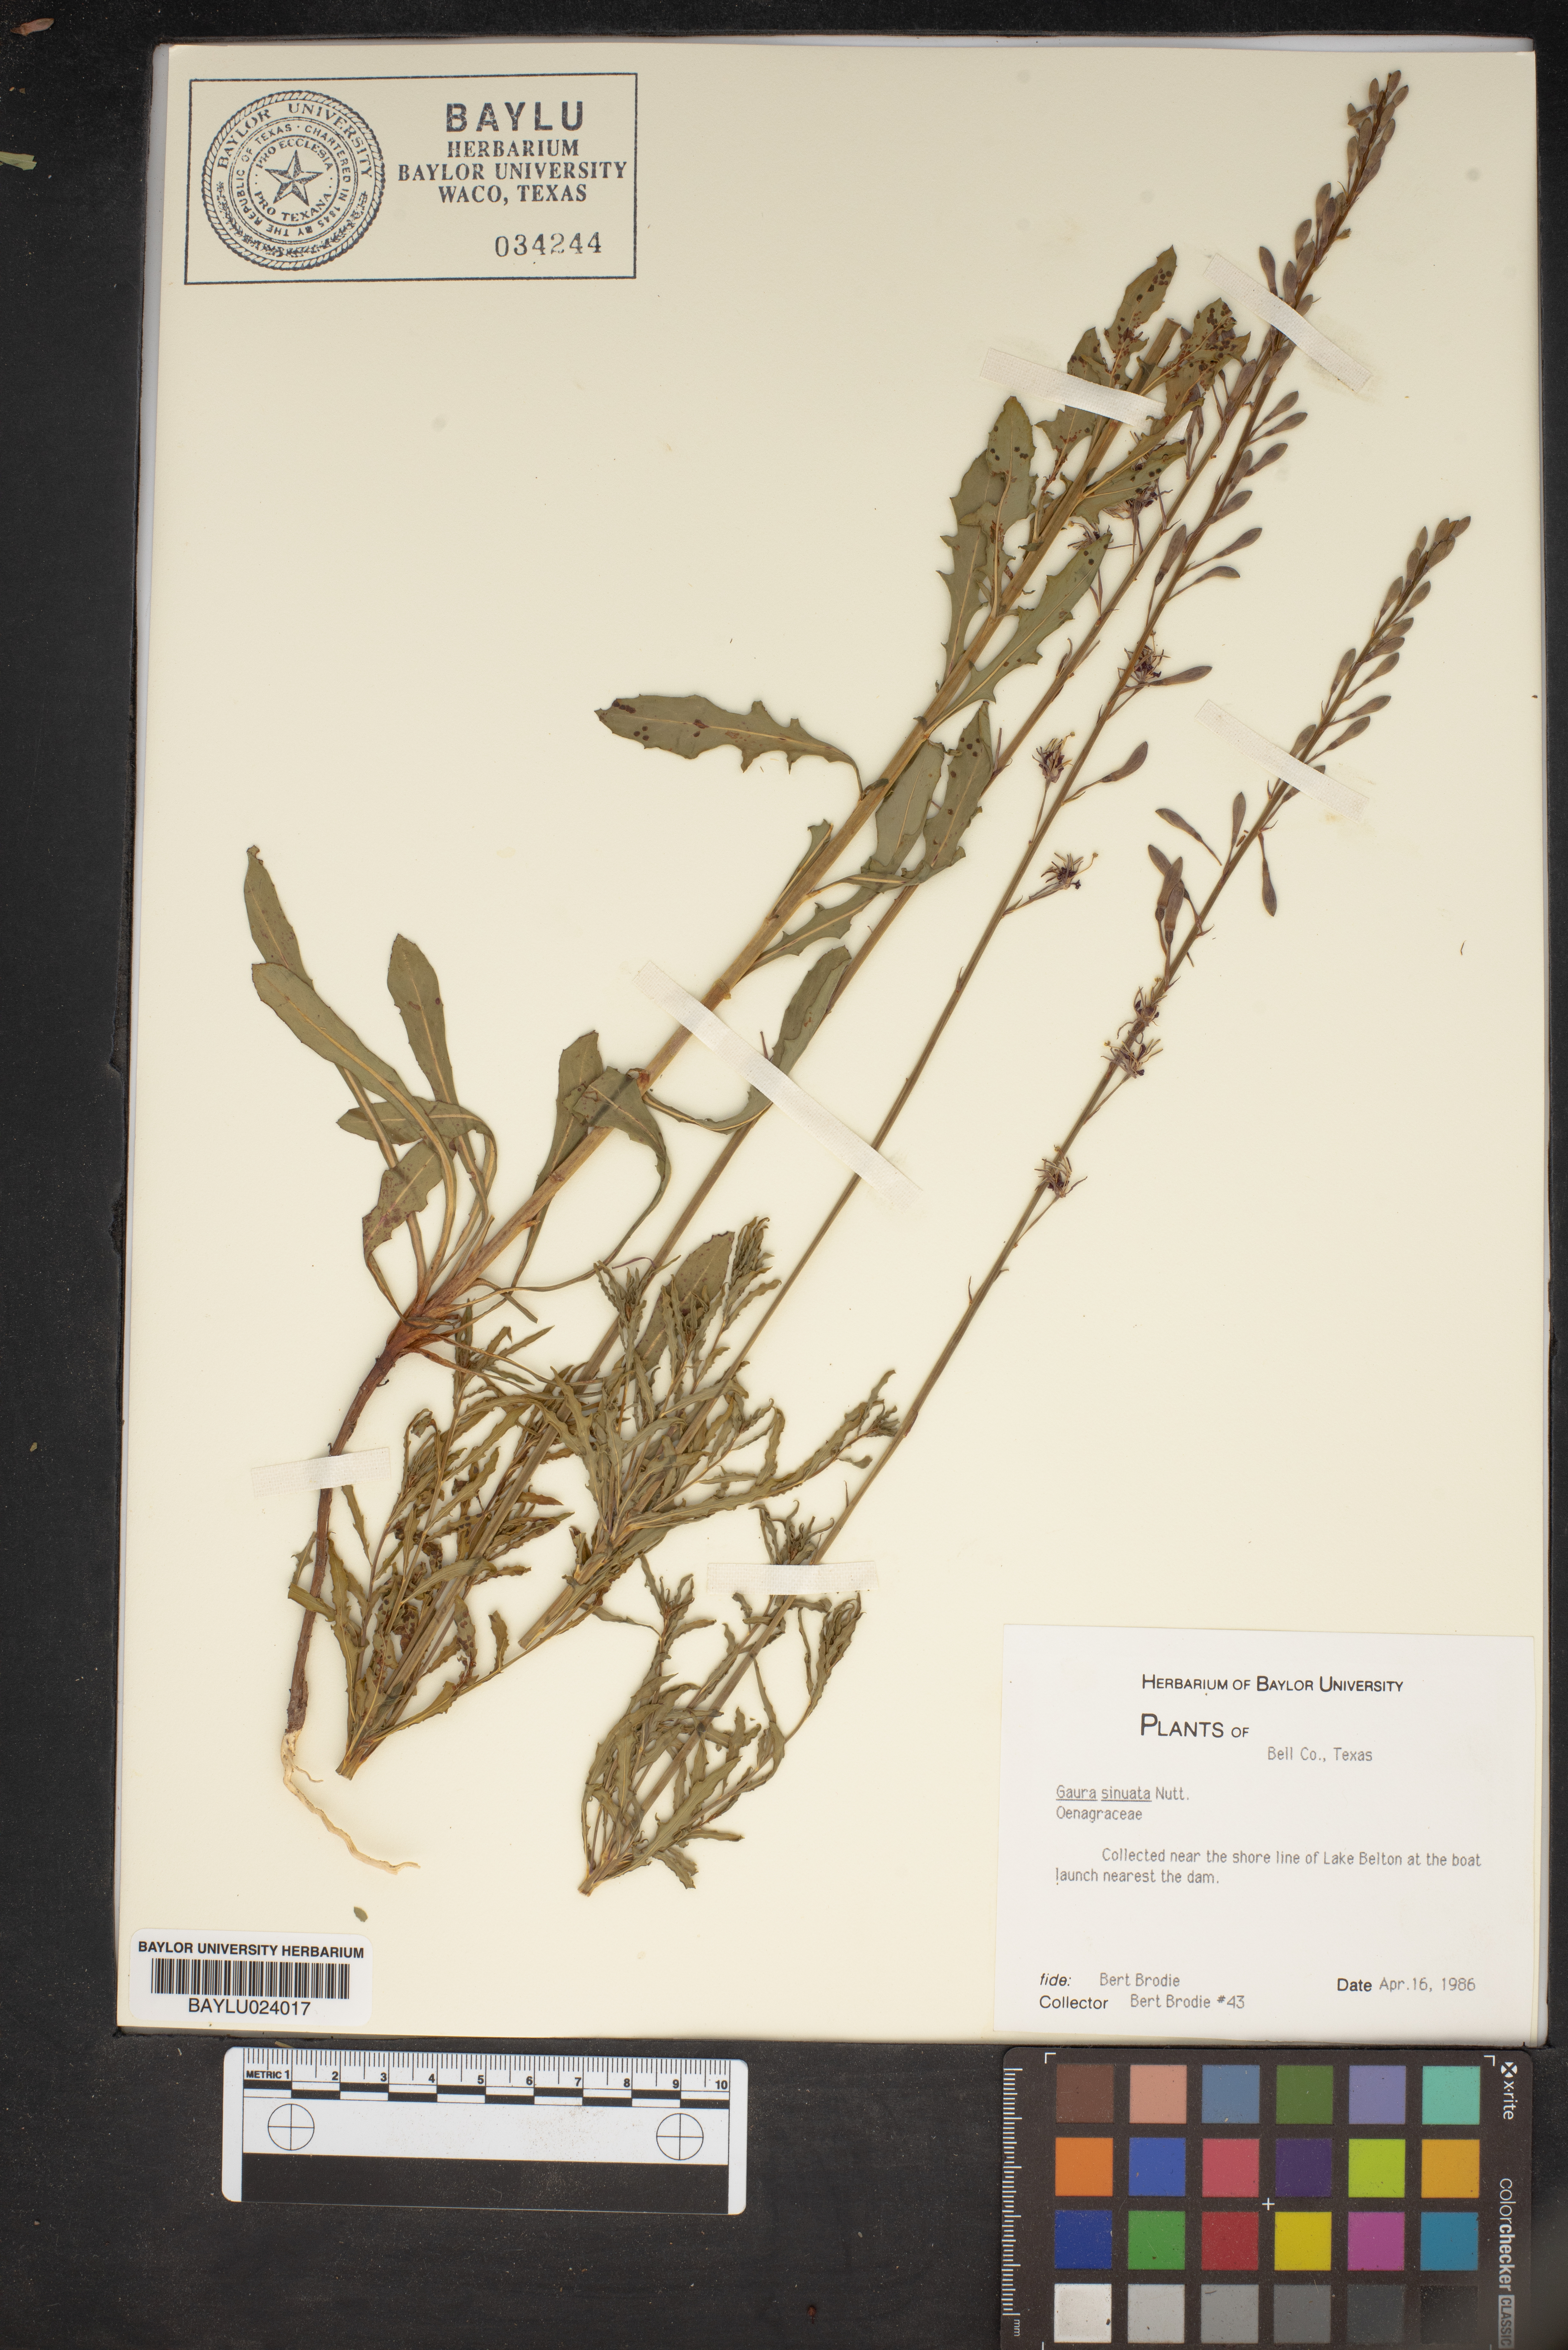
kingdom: Plantae
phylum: Tracheophyta
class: Magnoliopsida
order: Myrtales
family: Onagraceae
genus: Oenothera
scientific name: Oenothera sinuosa
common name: Wavyleaf beeblossom
